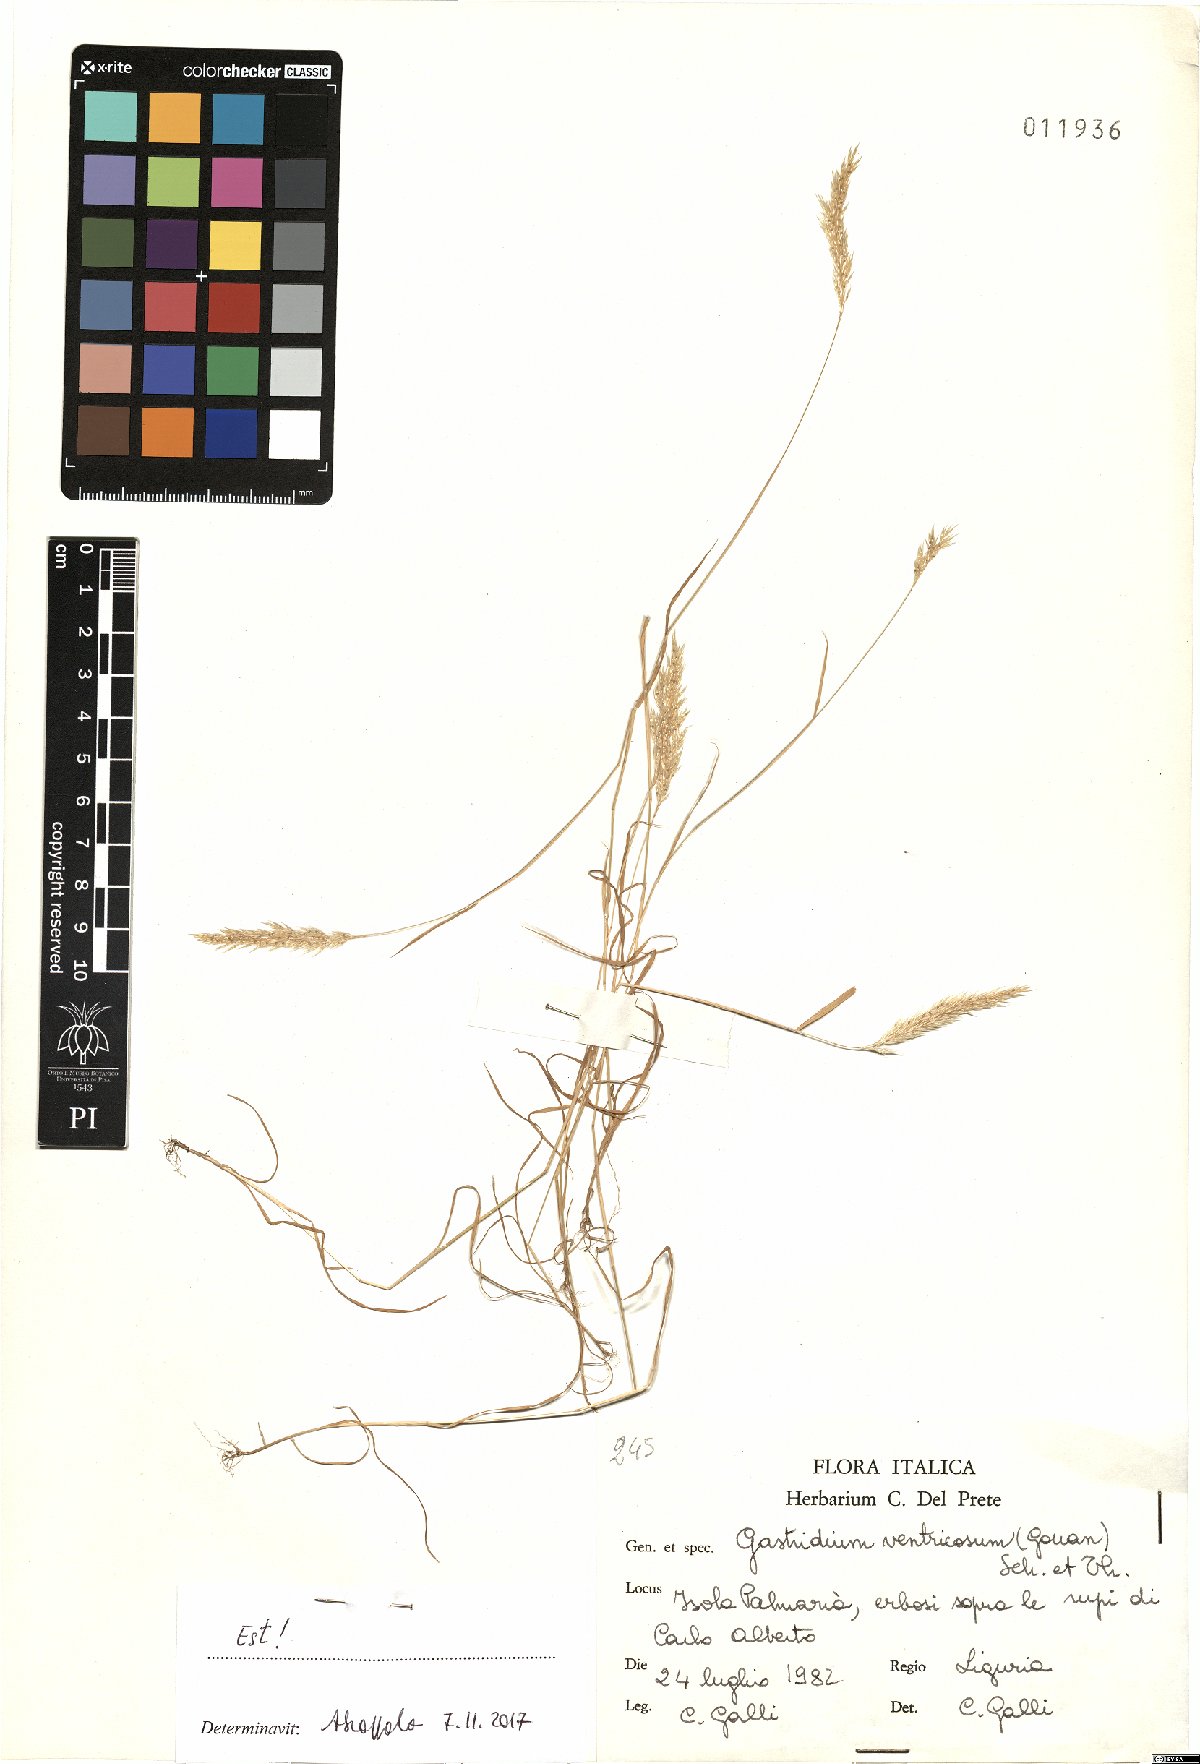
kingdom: Plantae
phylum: Tracheophyta
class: Liliopsida
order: Poales
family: Poaceae
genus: Gastridium
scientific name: Gastridium ventricosum
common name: Nit-grass
